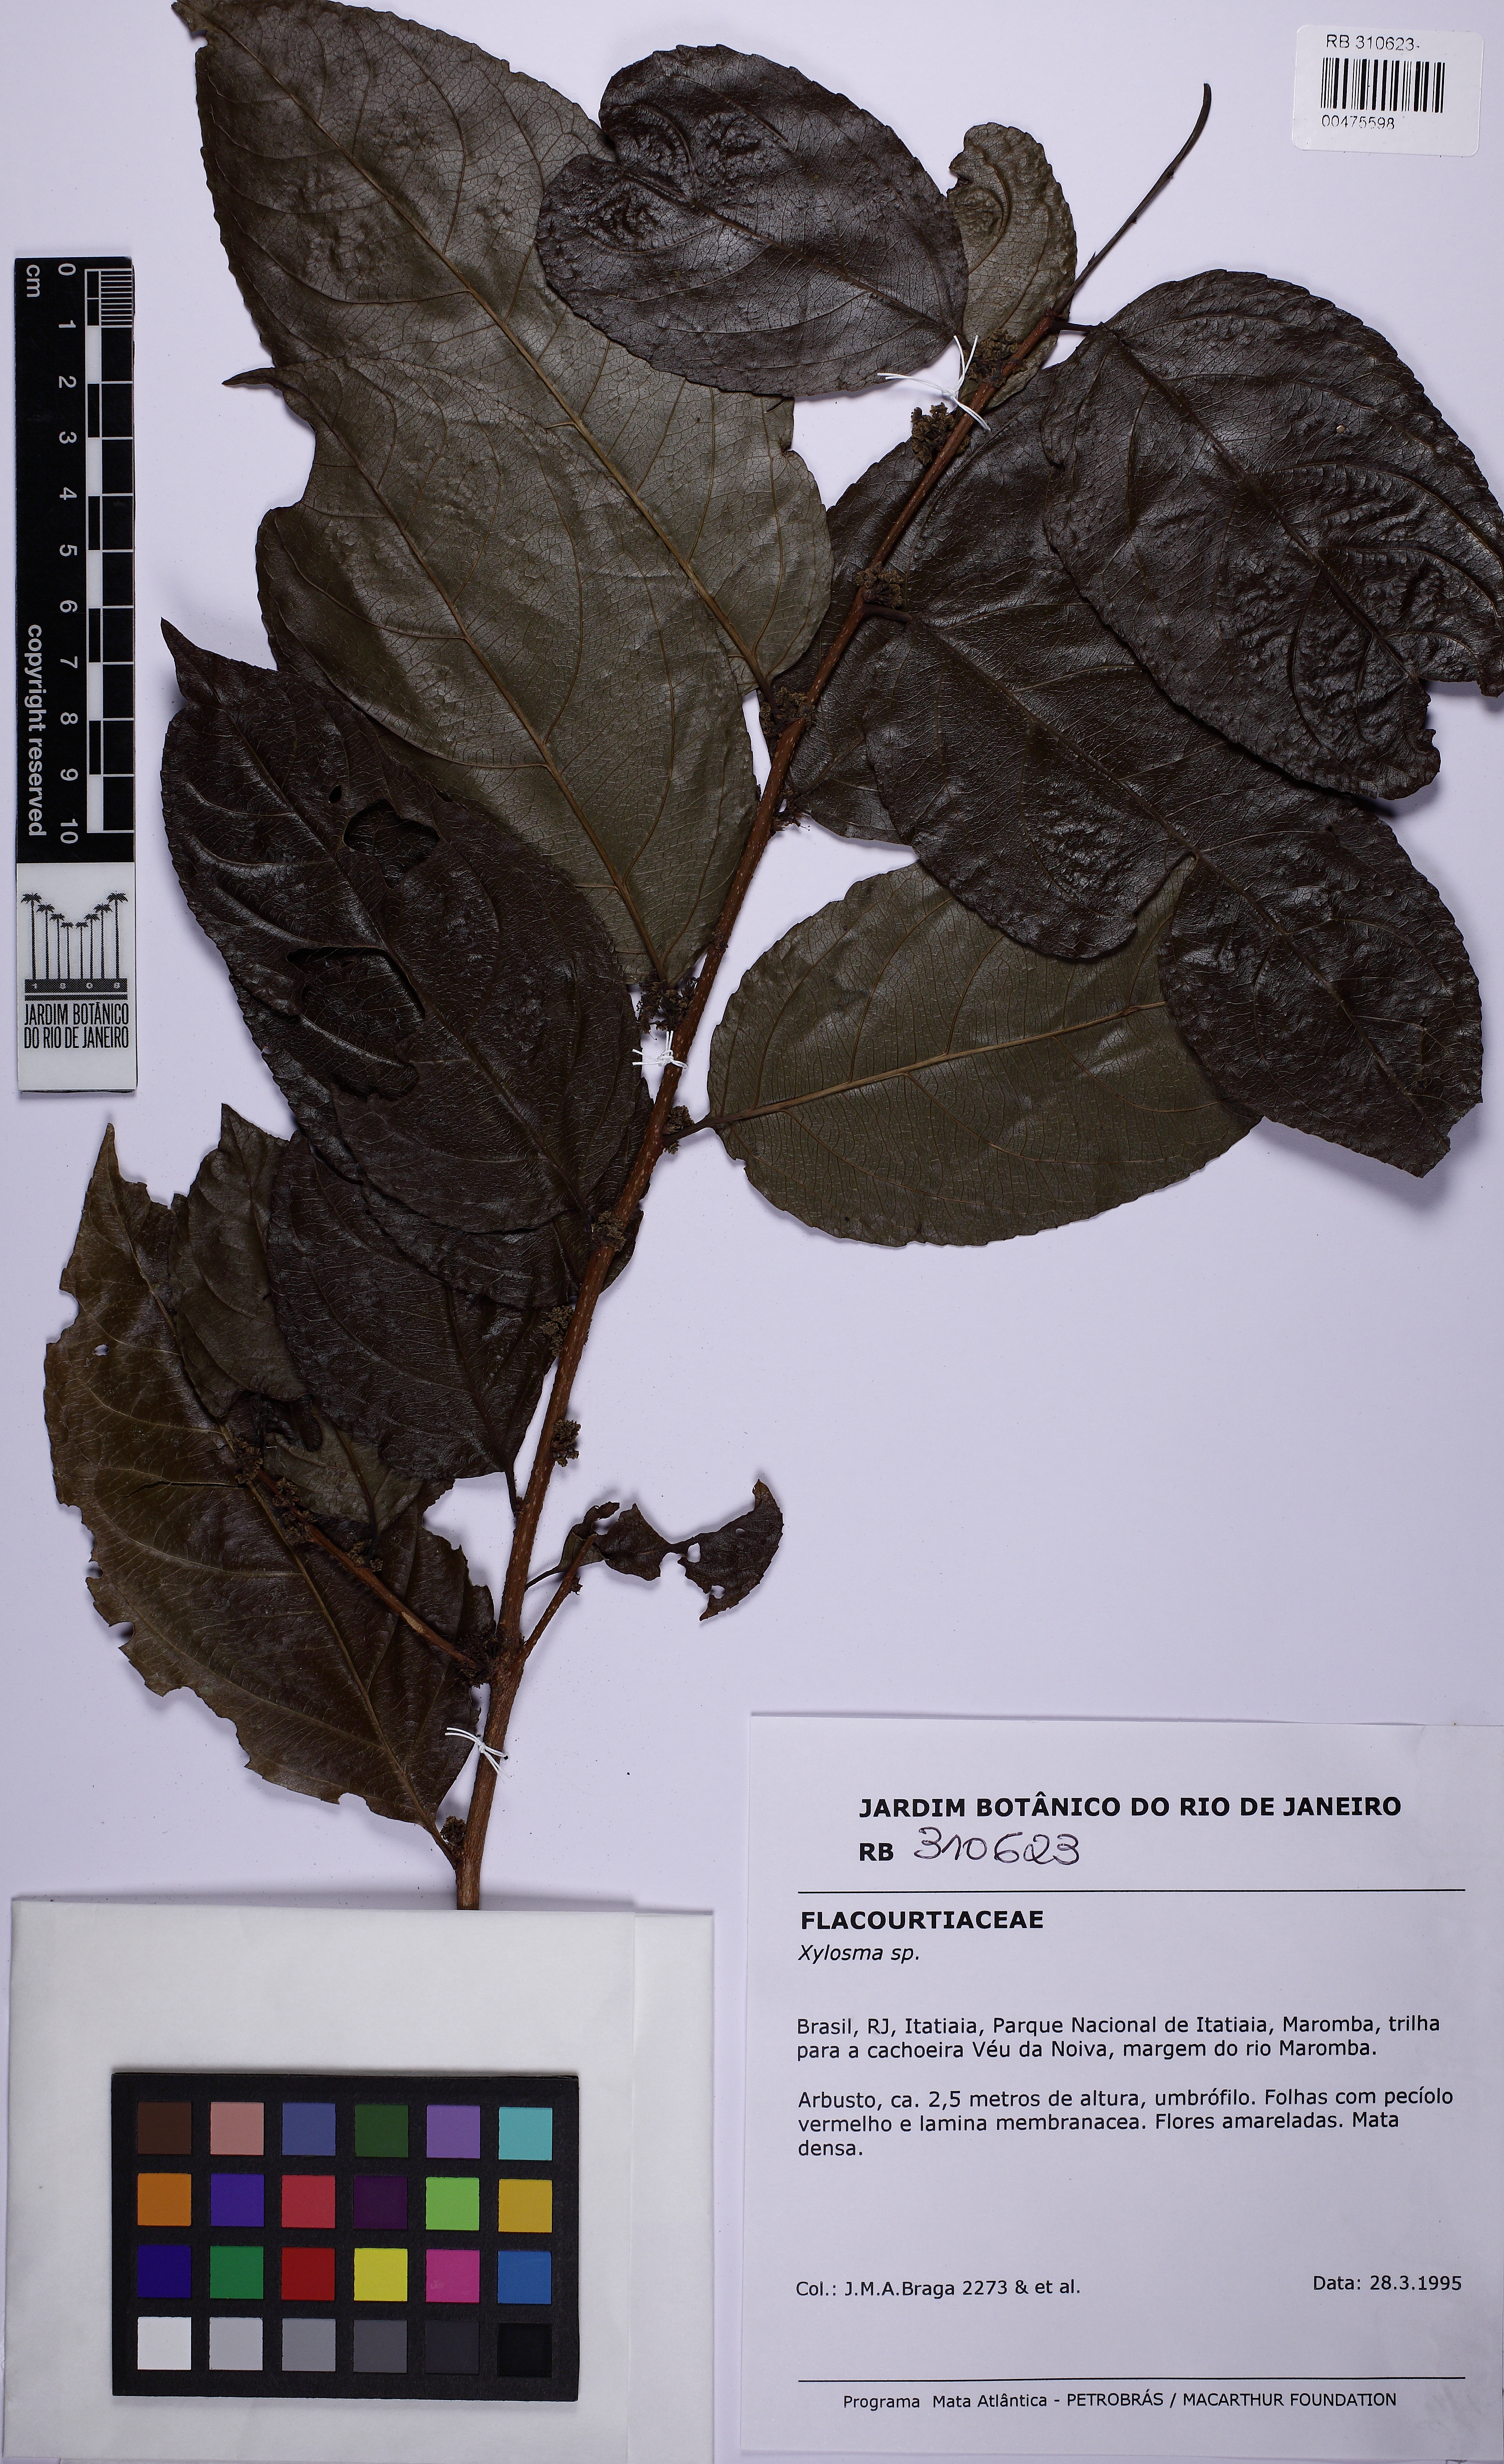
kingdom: Plantae
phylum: Tracheophyta
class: Magnoliopsida
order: Malpighiales
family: Salicaceae
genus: Xylosma
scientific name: Xylosma
